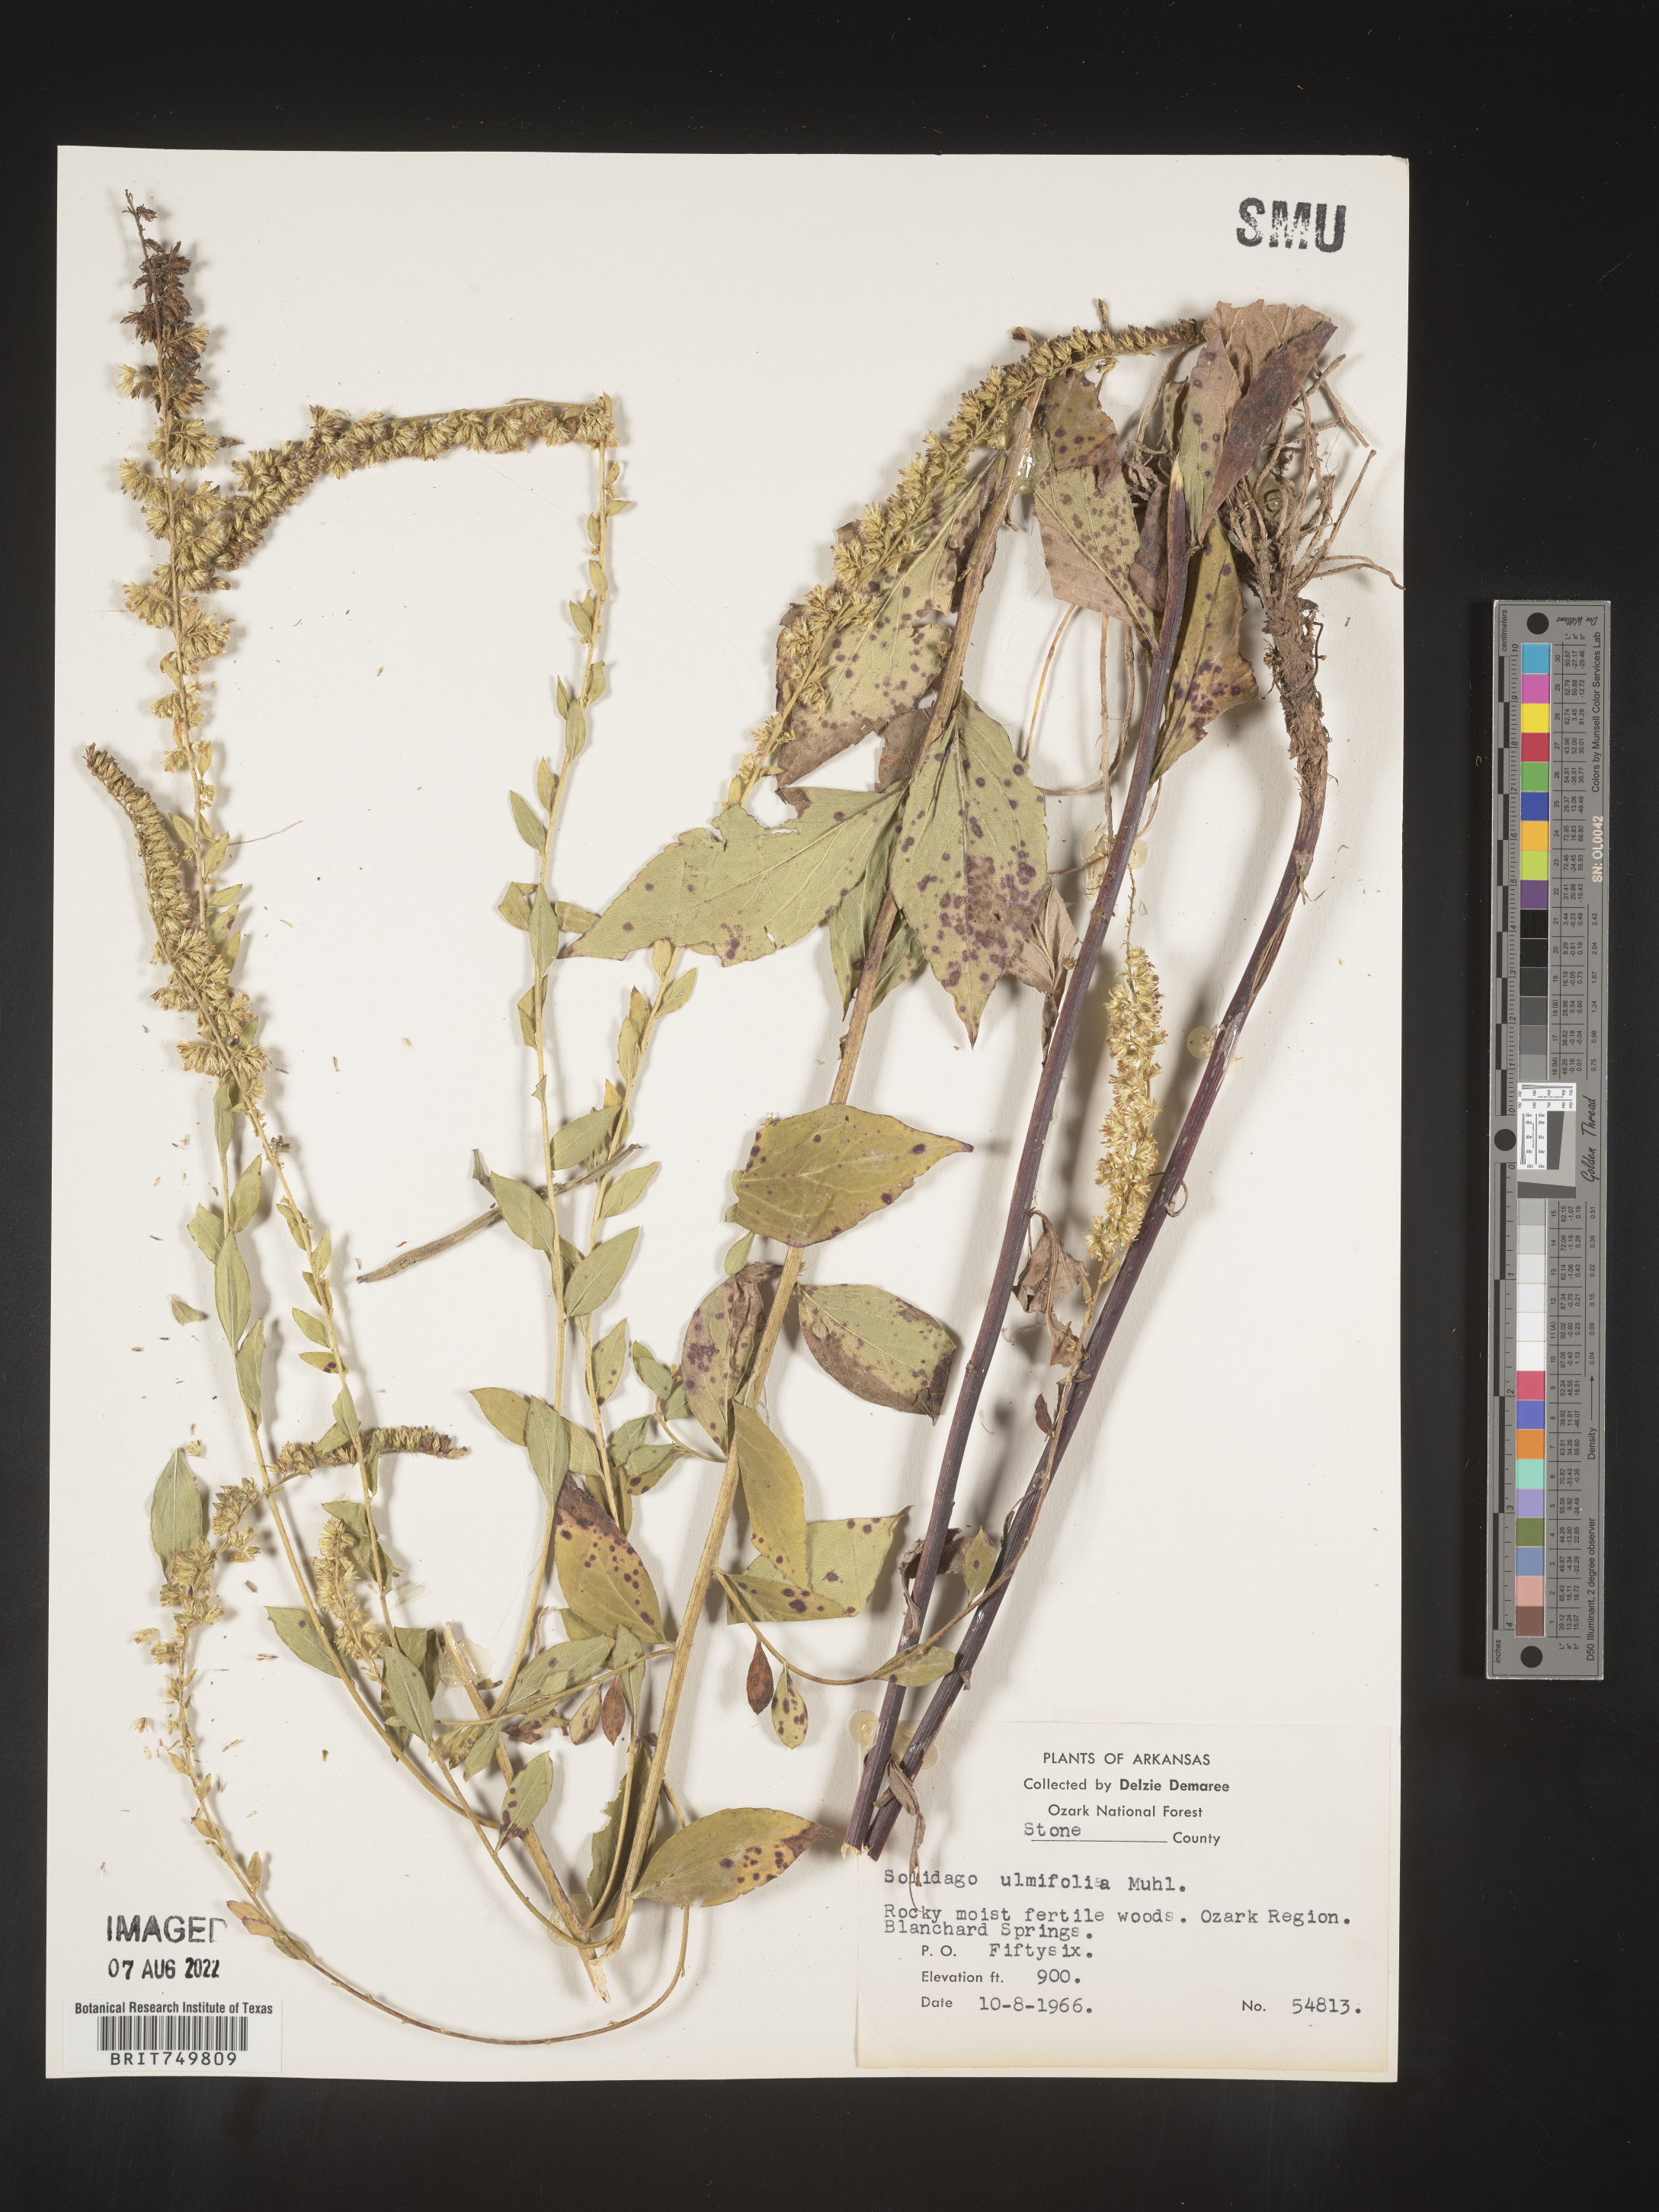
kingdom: Plantae
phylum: Tracheophyta
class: Magnoliopsida
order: Asterales
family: Asteraceae
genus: Solidago
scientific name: Solidago ulmifolia
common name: Elm-leaf goldenrod
